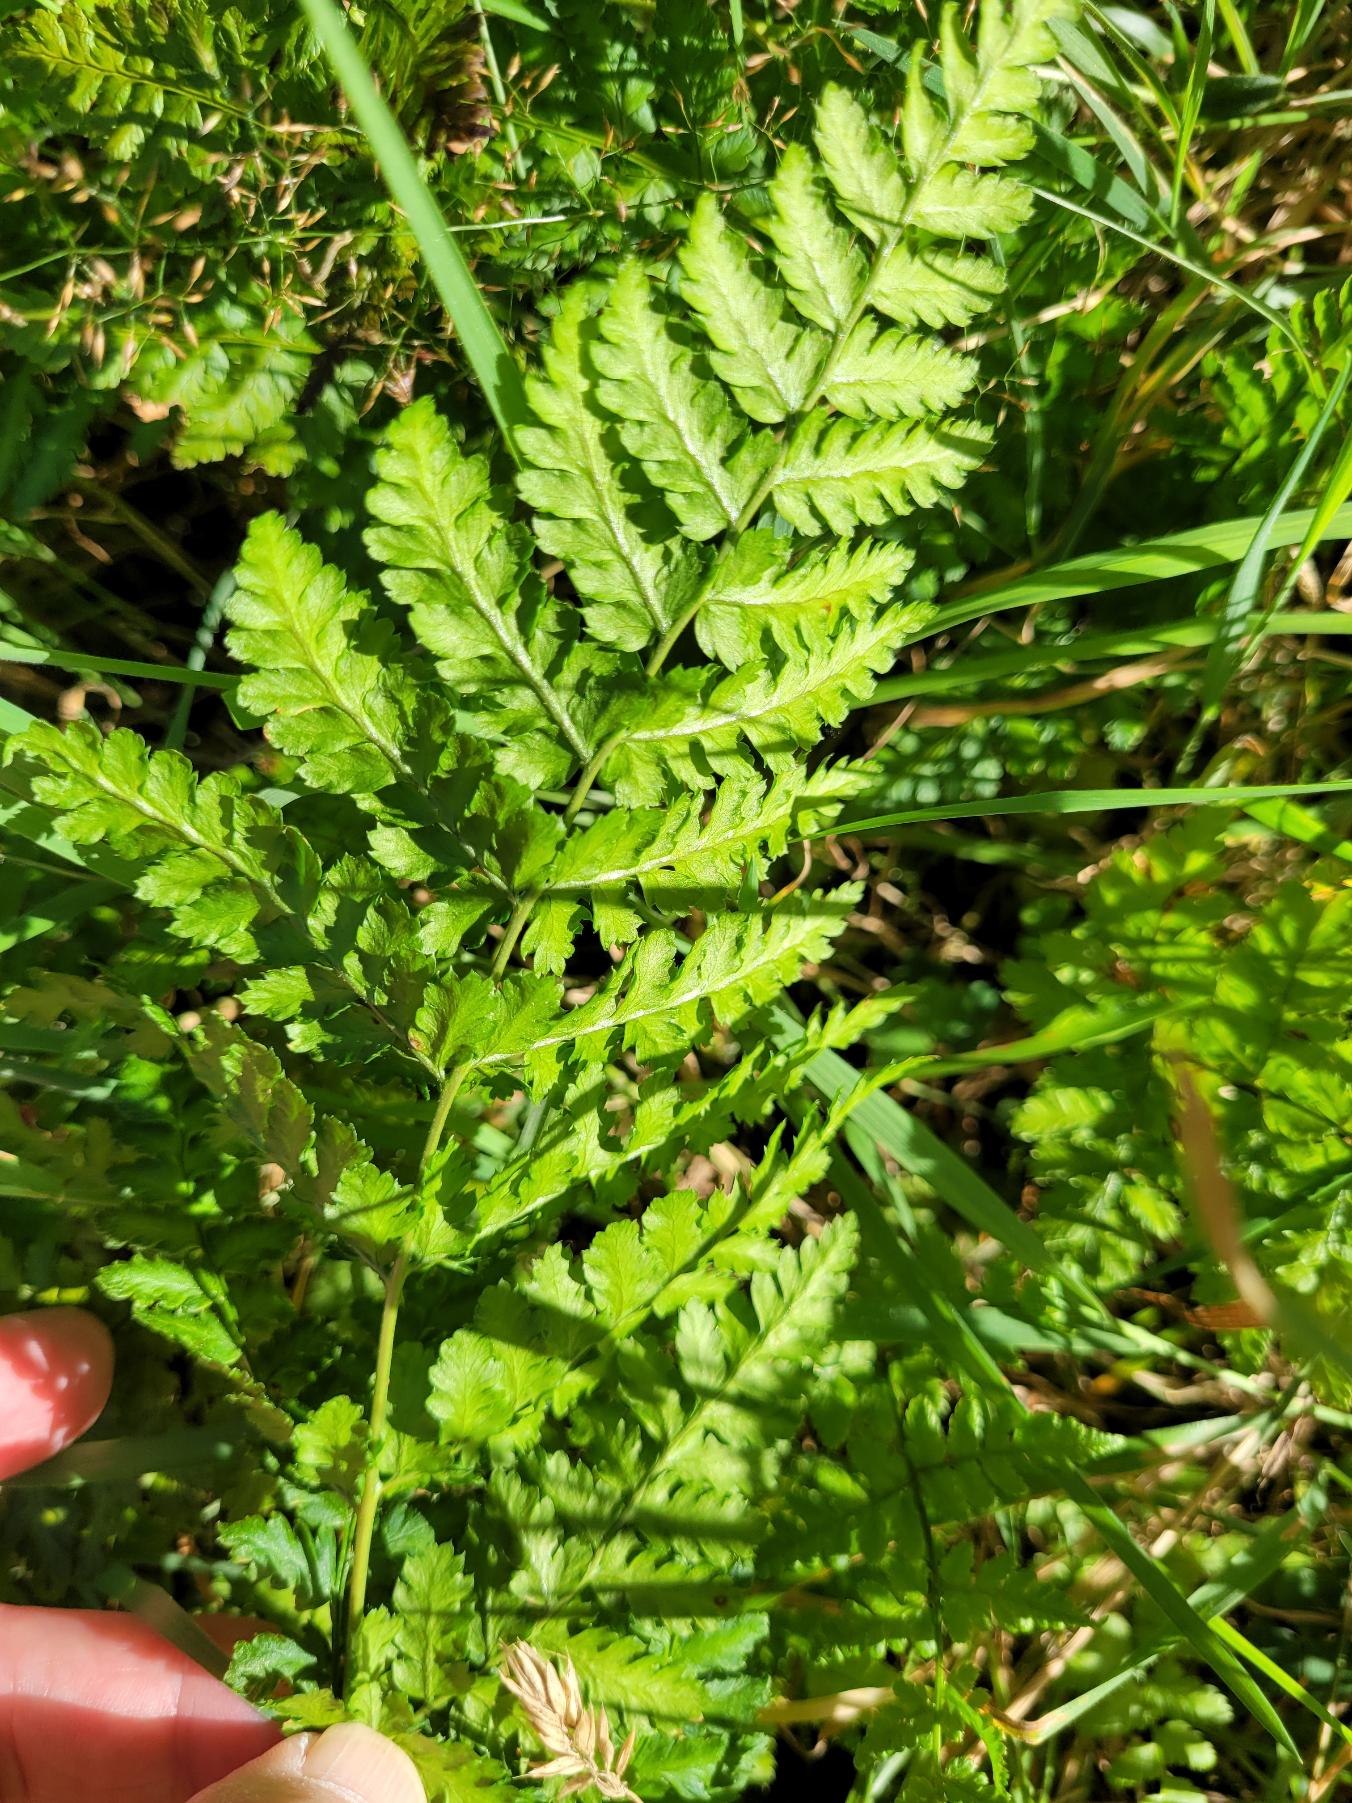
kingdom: Plantae
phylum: Tracheophyta
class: Polypodiopsida
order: Polypodiales
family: Dryopteridaceae
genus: Dryopteris
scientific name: Dryopteris carthusiana
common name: Smalbladet mangeløv
